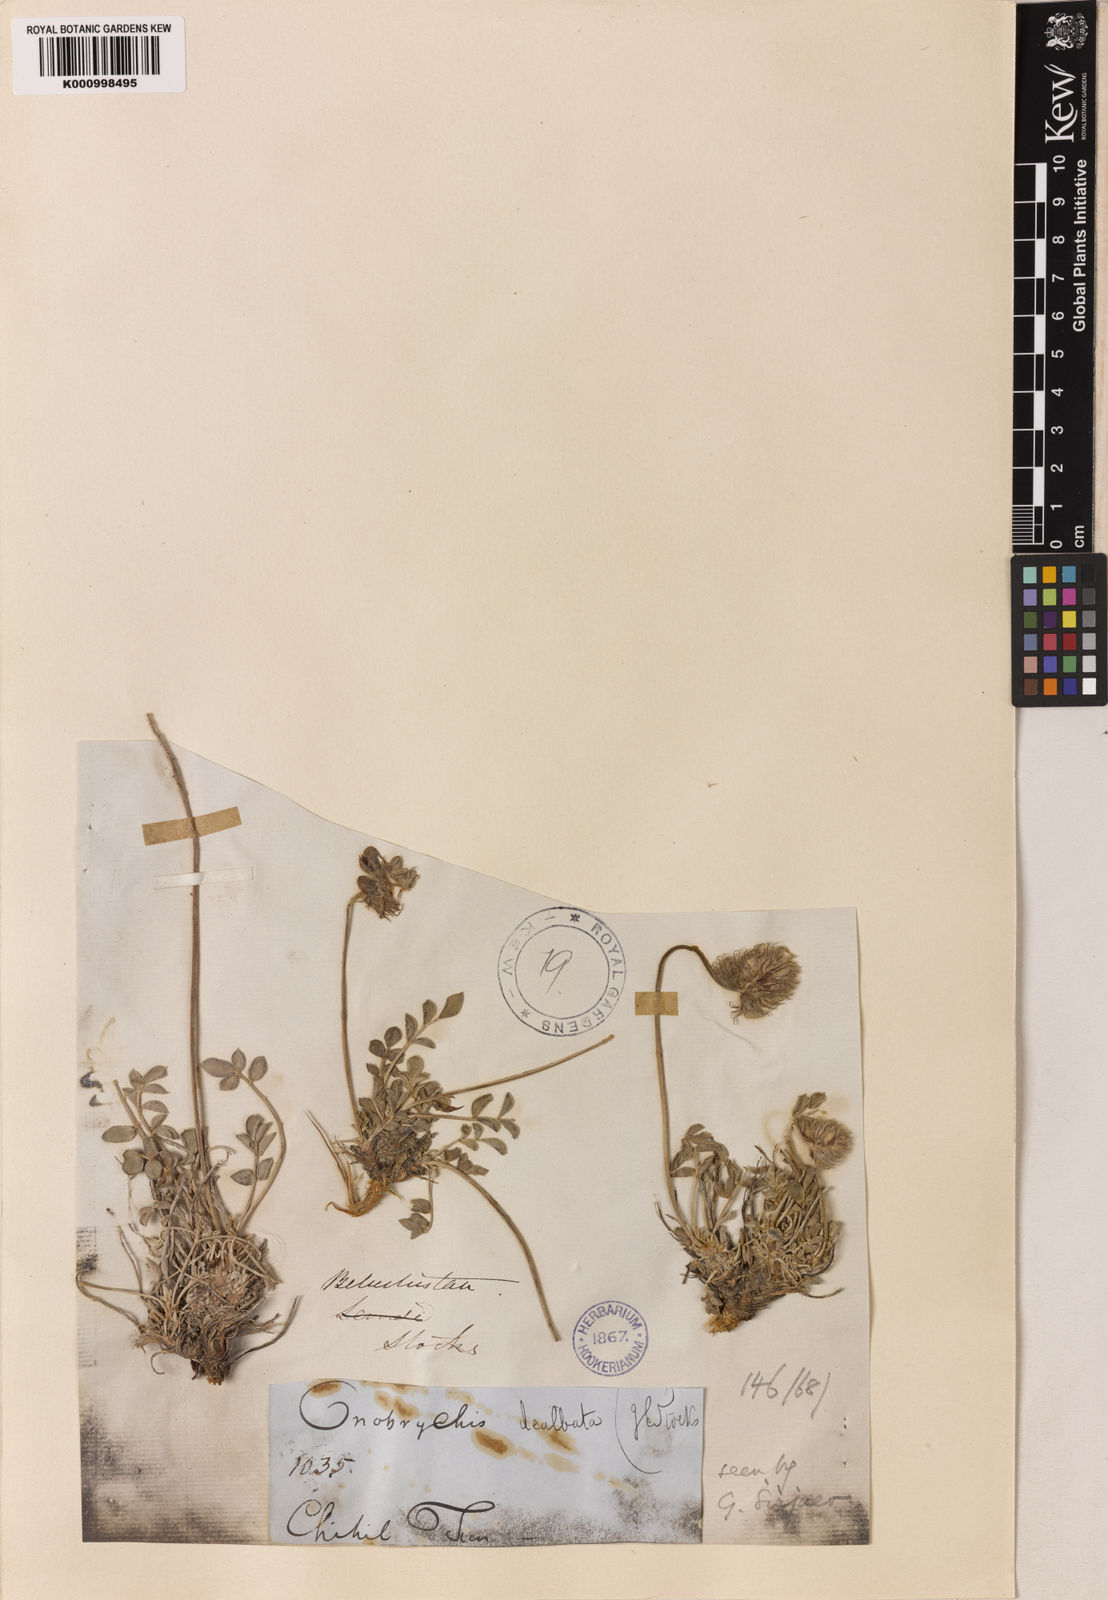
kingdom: Plantae
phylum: Tracheophyta
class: Magnoliopsida
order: Fabales
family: Fabaceae
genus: Onobrychis
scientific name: Onobrychis dealbata
